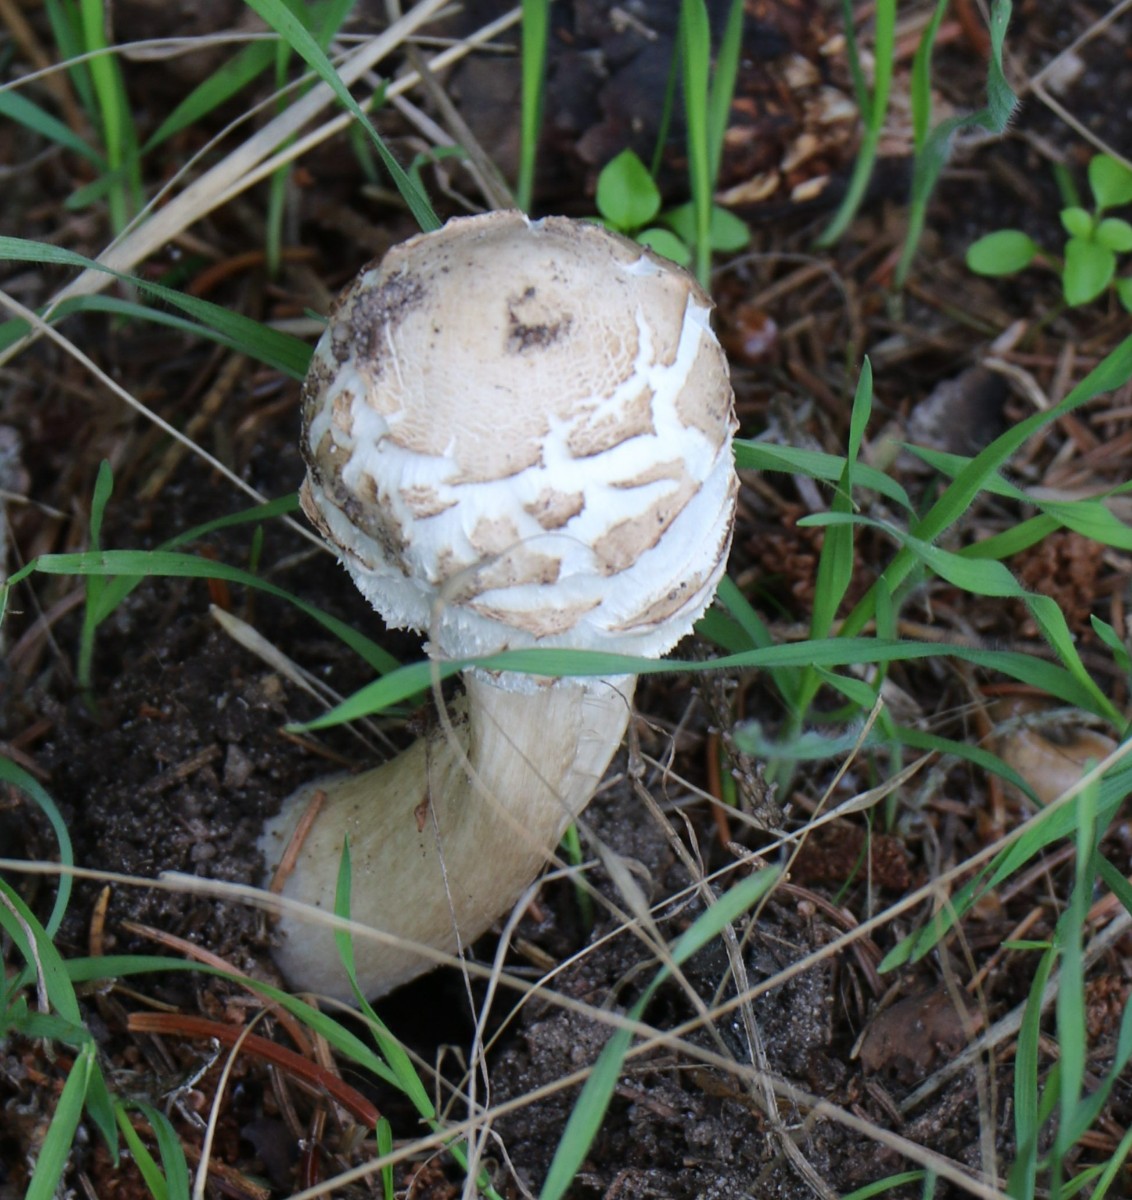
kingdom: Fungi
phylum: Basidiomycota
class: Agaricomycetes
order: Agaricales
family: Agaricaceae
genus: Chlorophyllum
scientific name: Chlorophyllum
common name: rabarberhat
